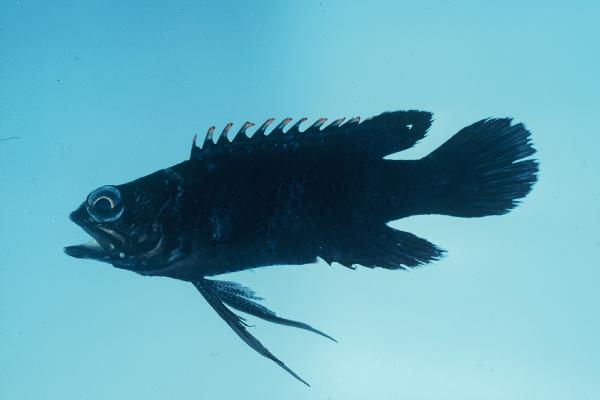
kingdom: Animalia
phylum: Chordata
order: Perciformes
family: Plesiopidae
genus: Plesiops
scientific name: Plesiops coeruleolineatus
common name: Crimsontip longfin
